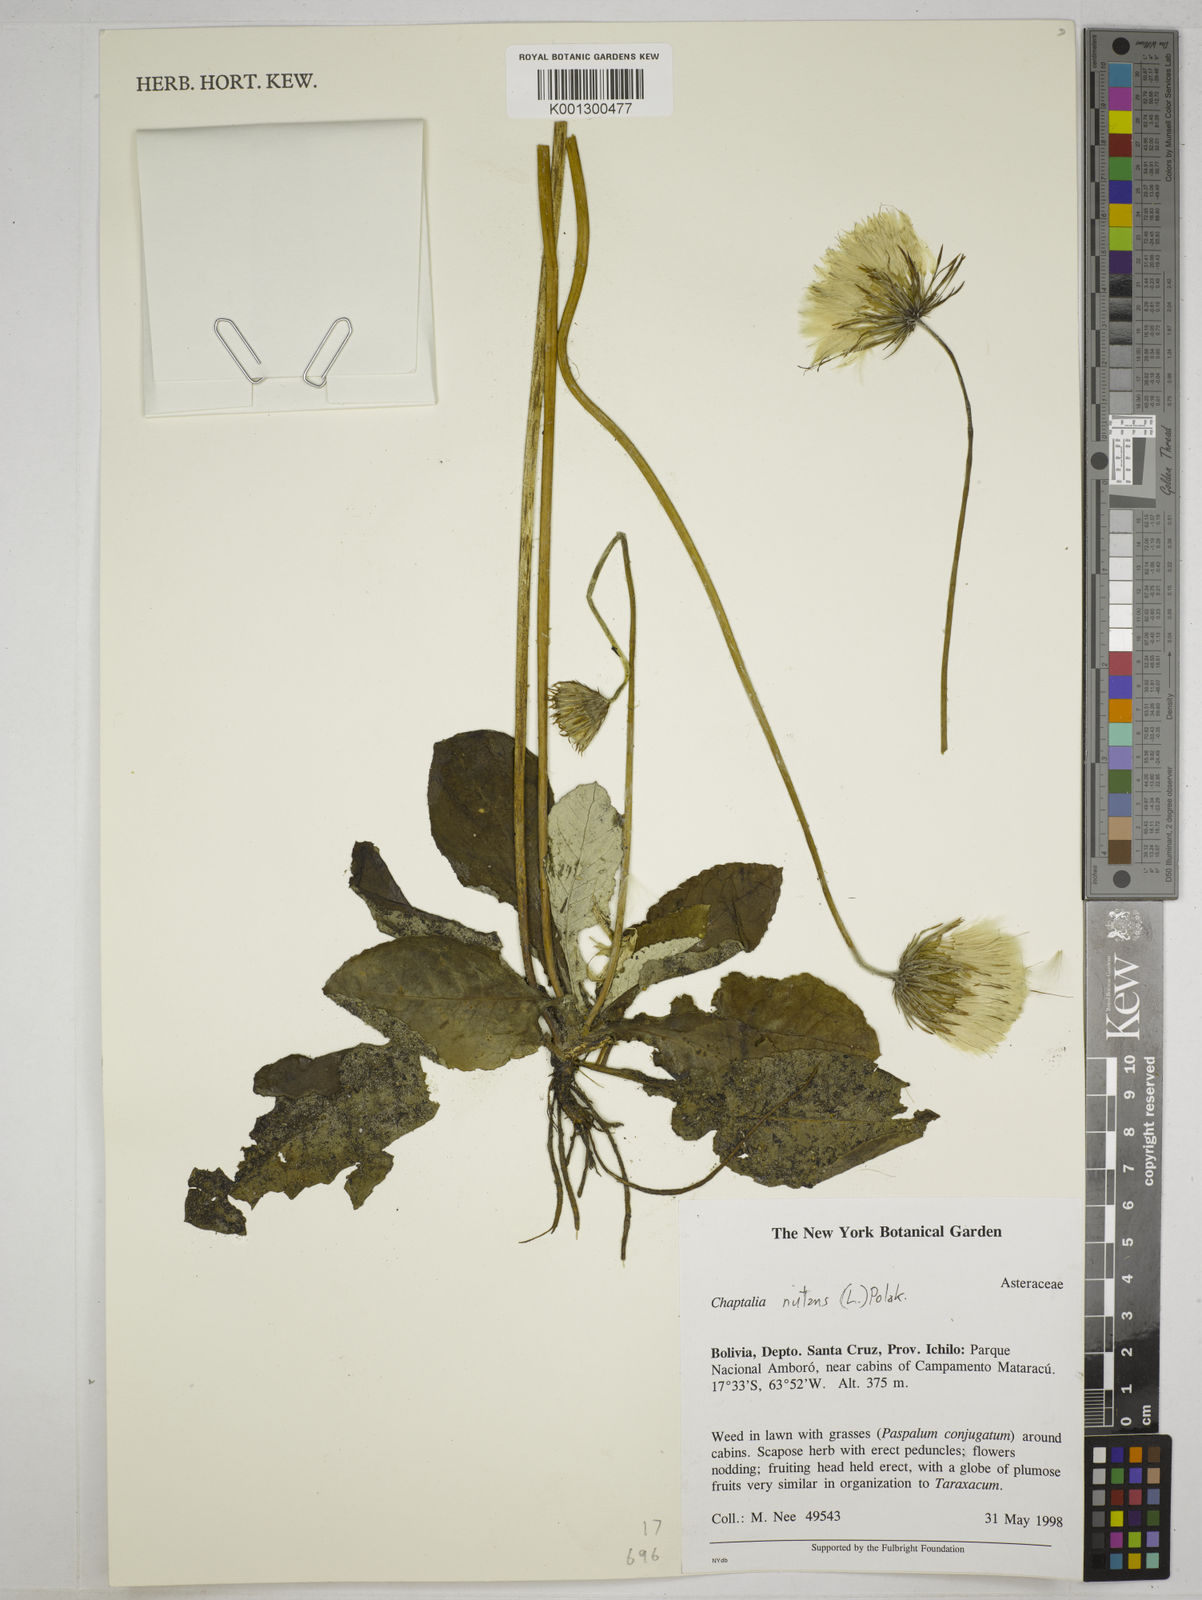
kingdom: Plantae
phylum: Tracheophyta
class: Magnoliopsida
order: Asterales
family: Asteraceae
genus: Chaptalia
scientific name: Chaptalia nutans
